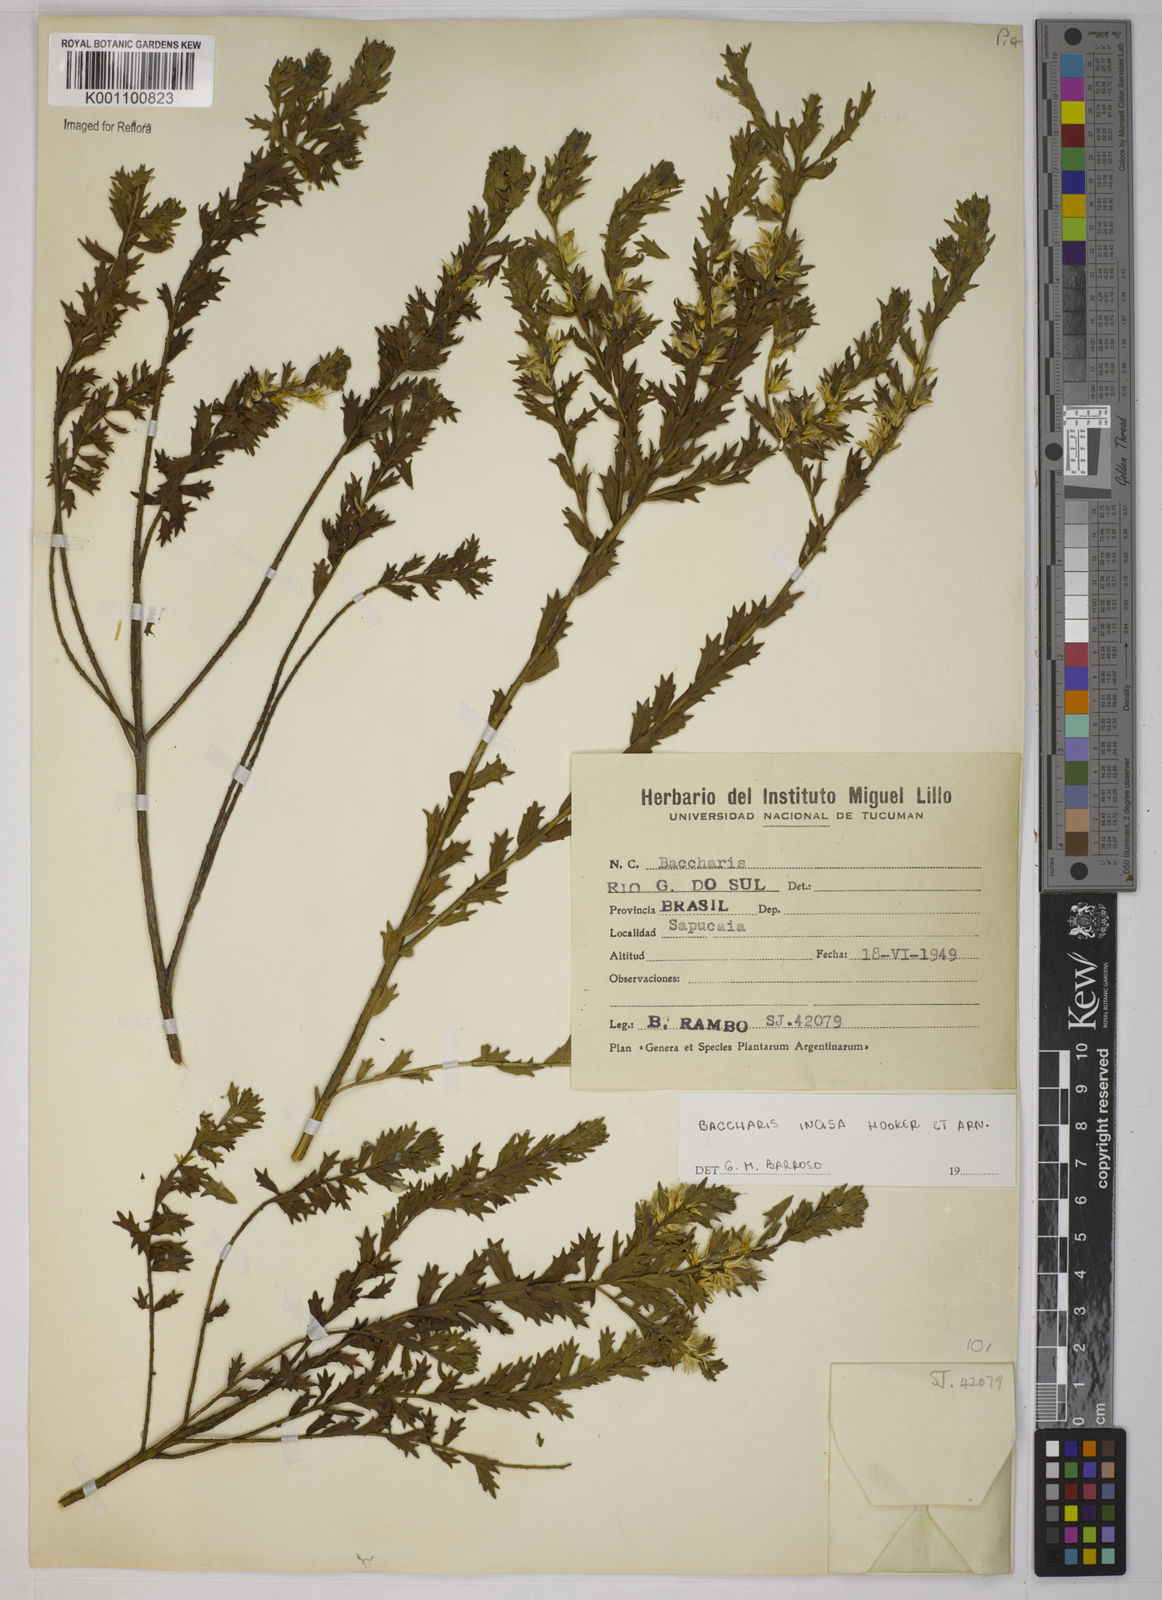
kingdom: Plantae
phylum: Tracheophyta
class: Magnoliopsida
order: Asterales
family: Asteraceae
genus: Baccharis
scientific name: Baccharis incisa
